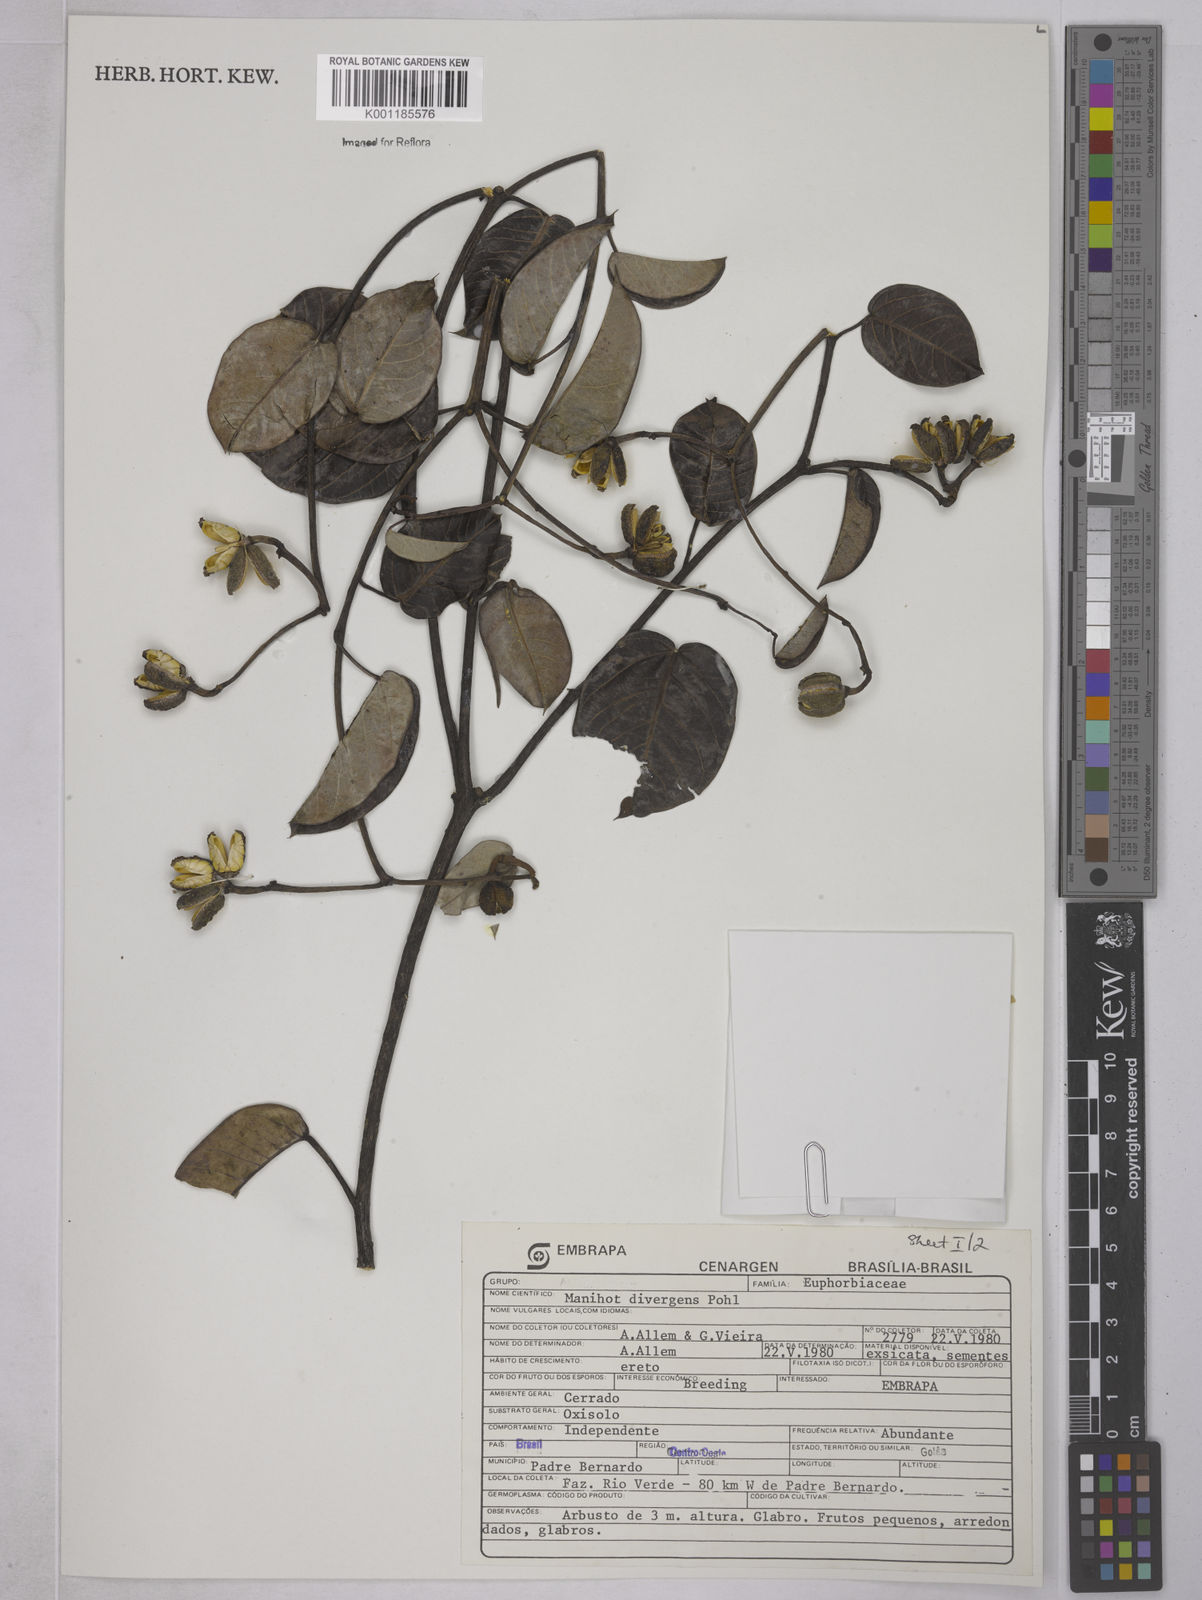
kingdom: Plantae
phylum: Tracheophyta
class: Magnoliopsida
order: Malpighiales
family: Euphorbiaceae
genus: Manihot
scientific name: Manihot divergens
